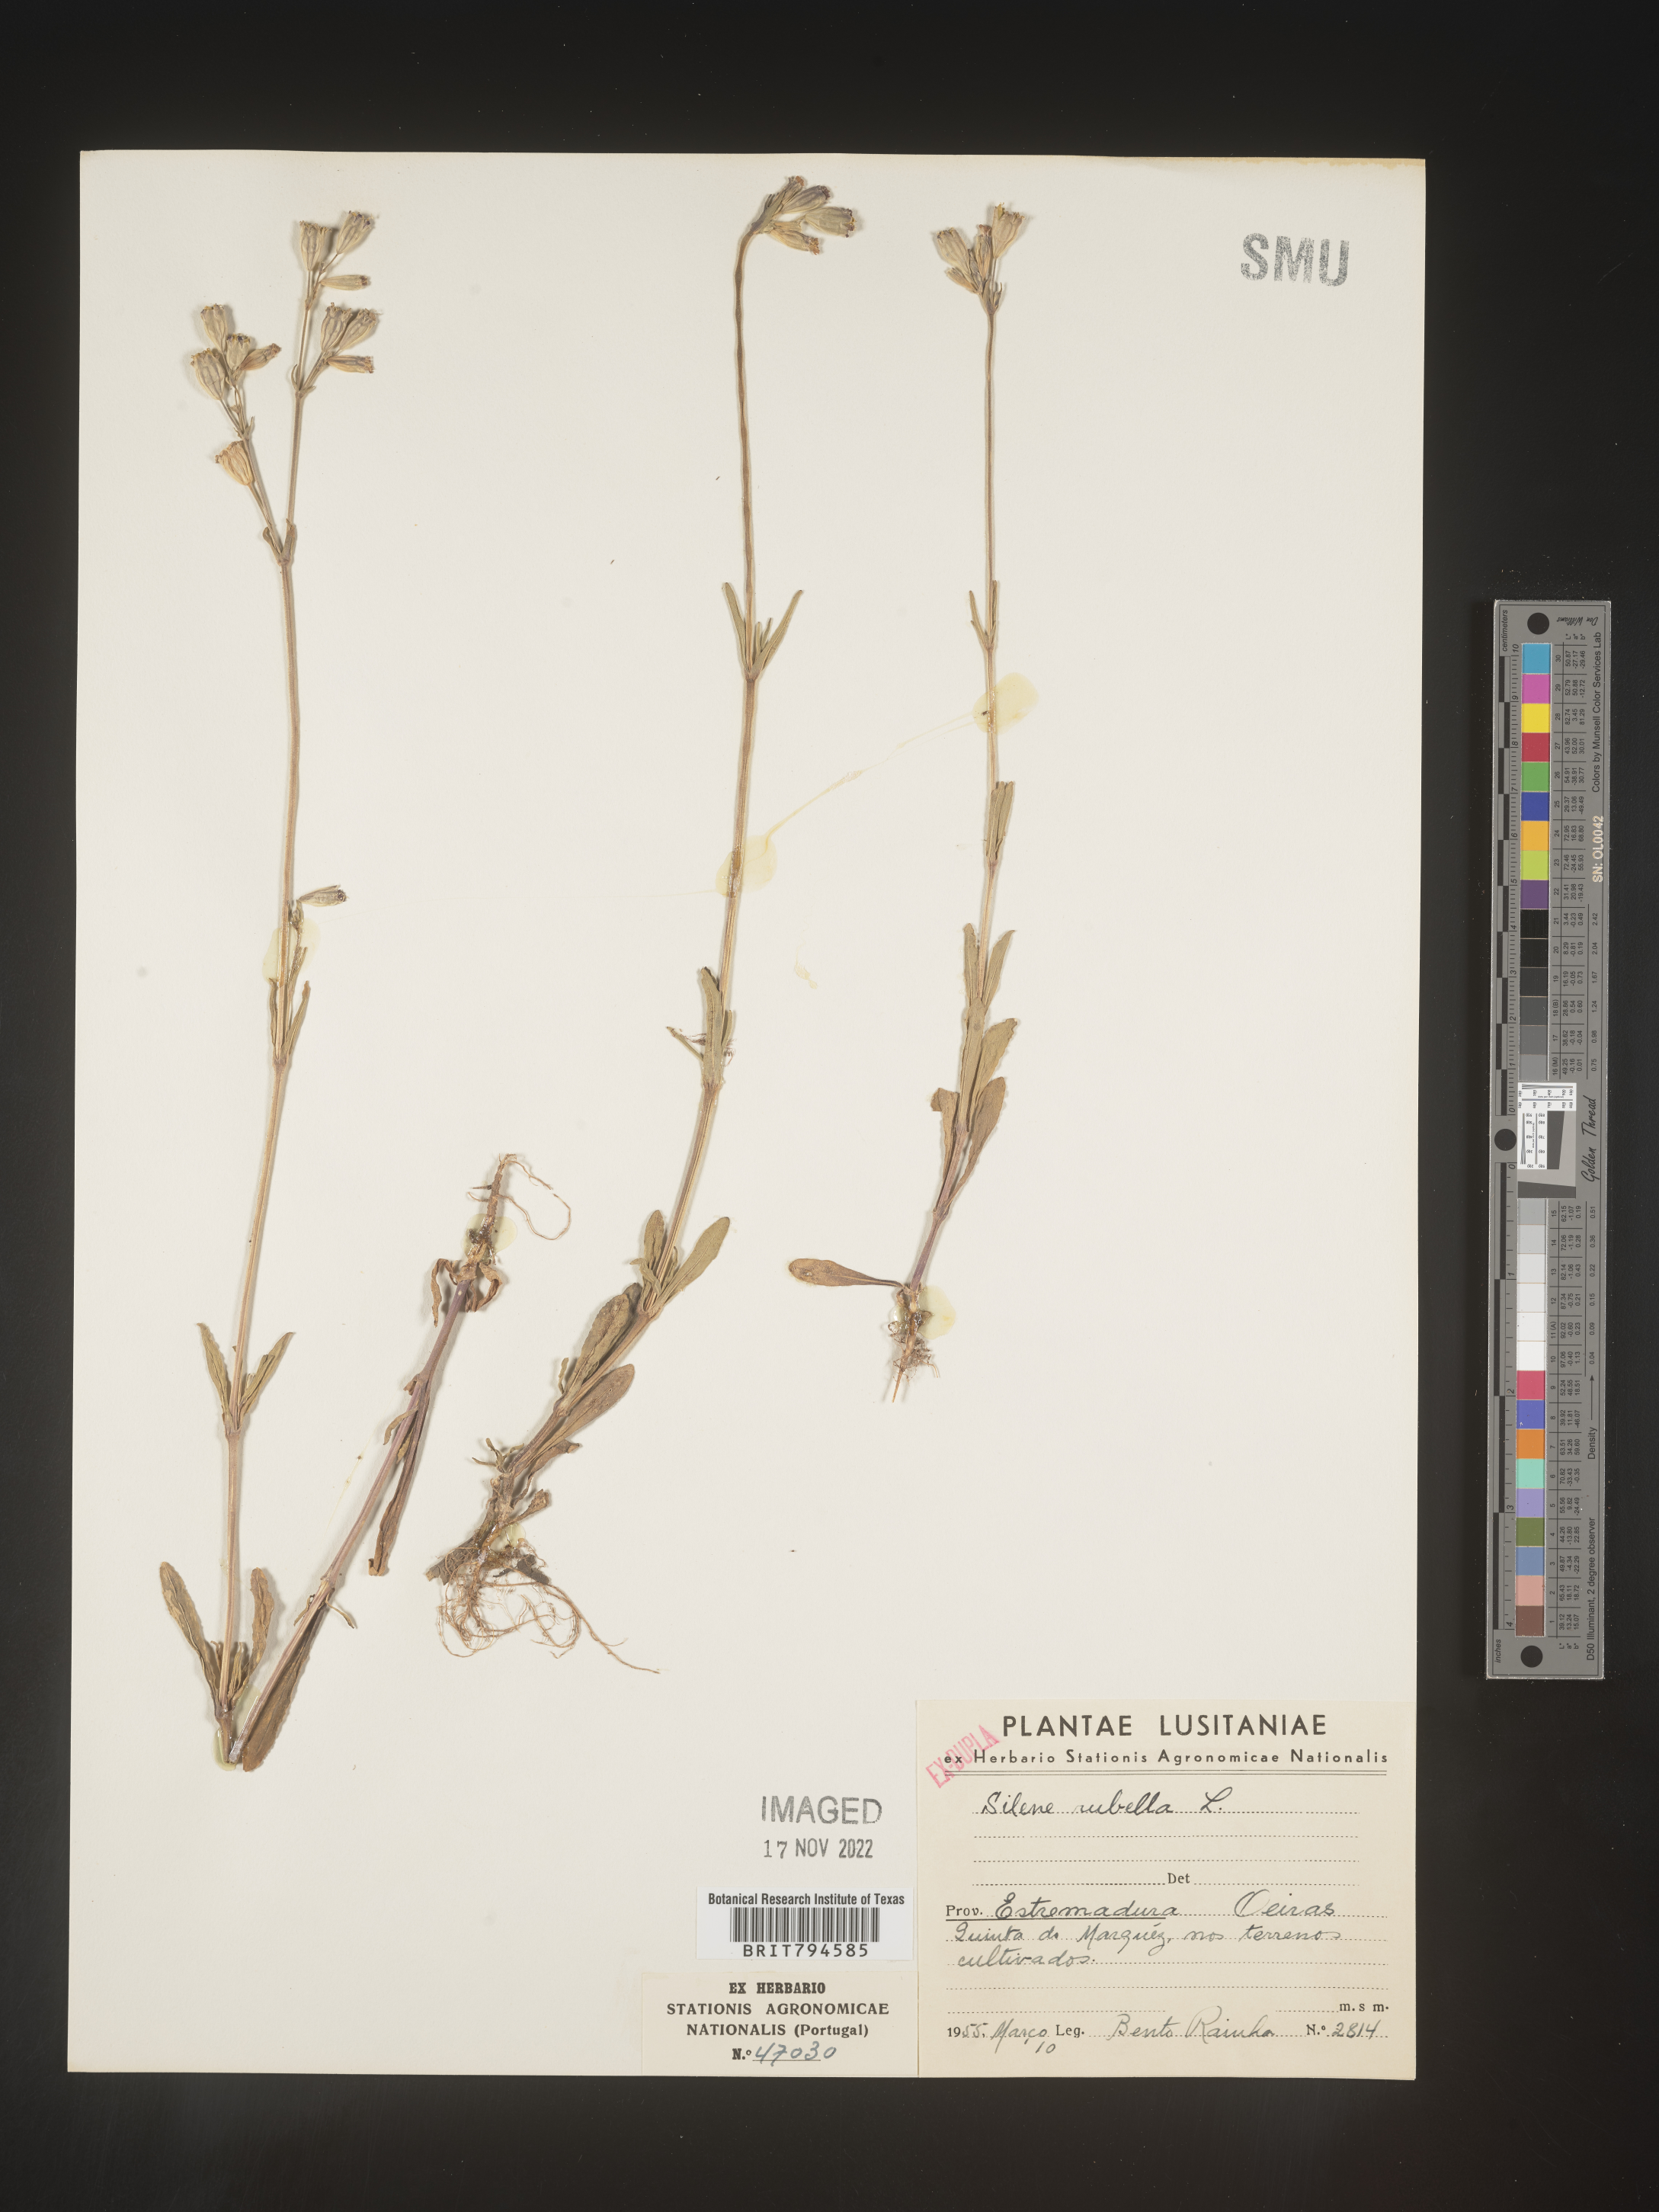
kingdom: Plantae
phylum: Tracheophyta
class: Magnoliopsida
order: Caryophyllales
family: Caryophyllaceae
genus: Silene
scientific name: Silene rubella
